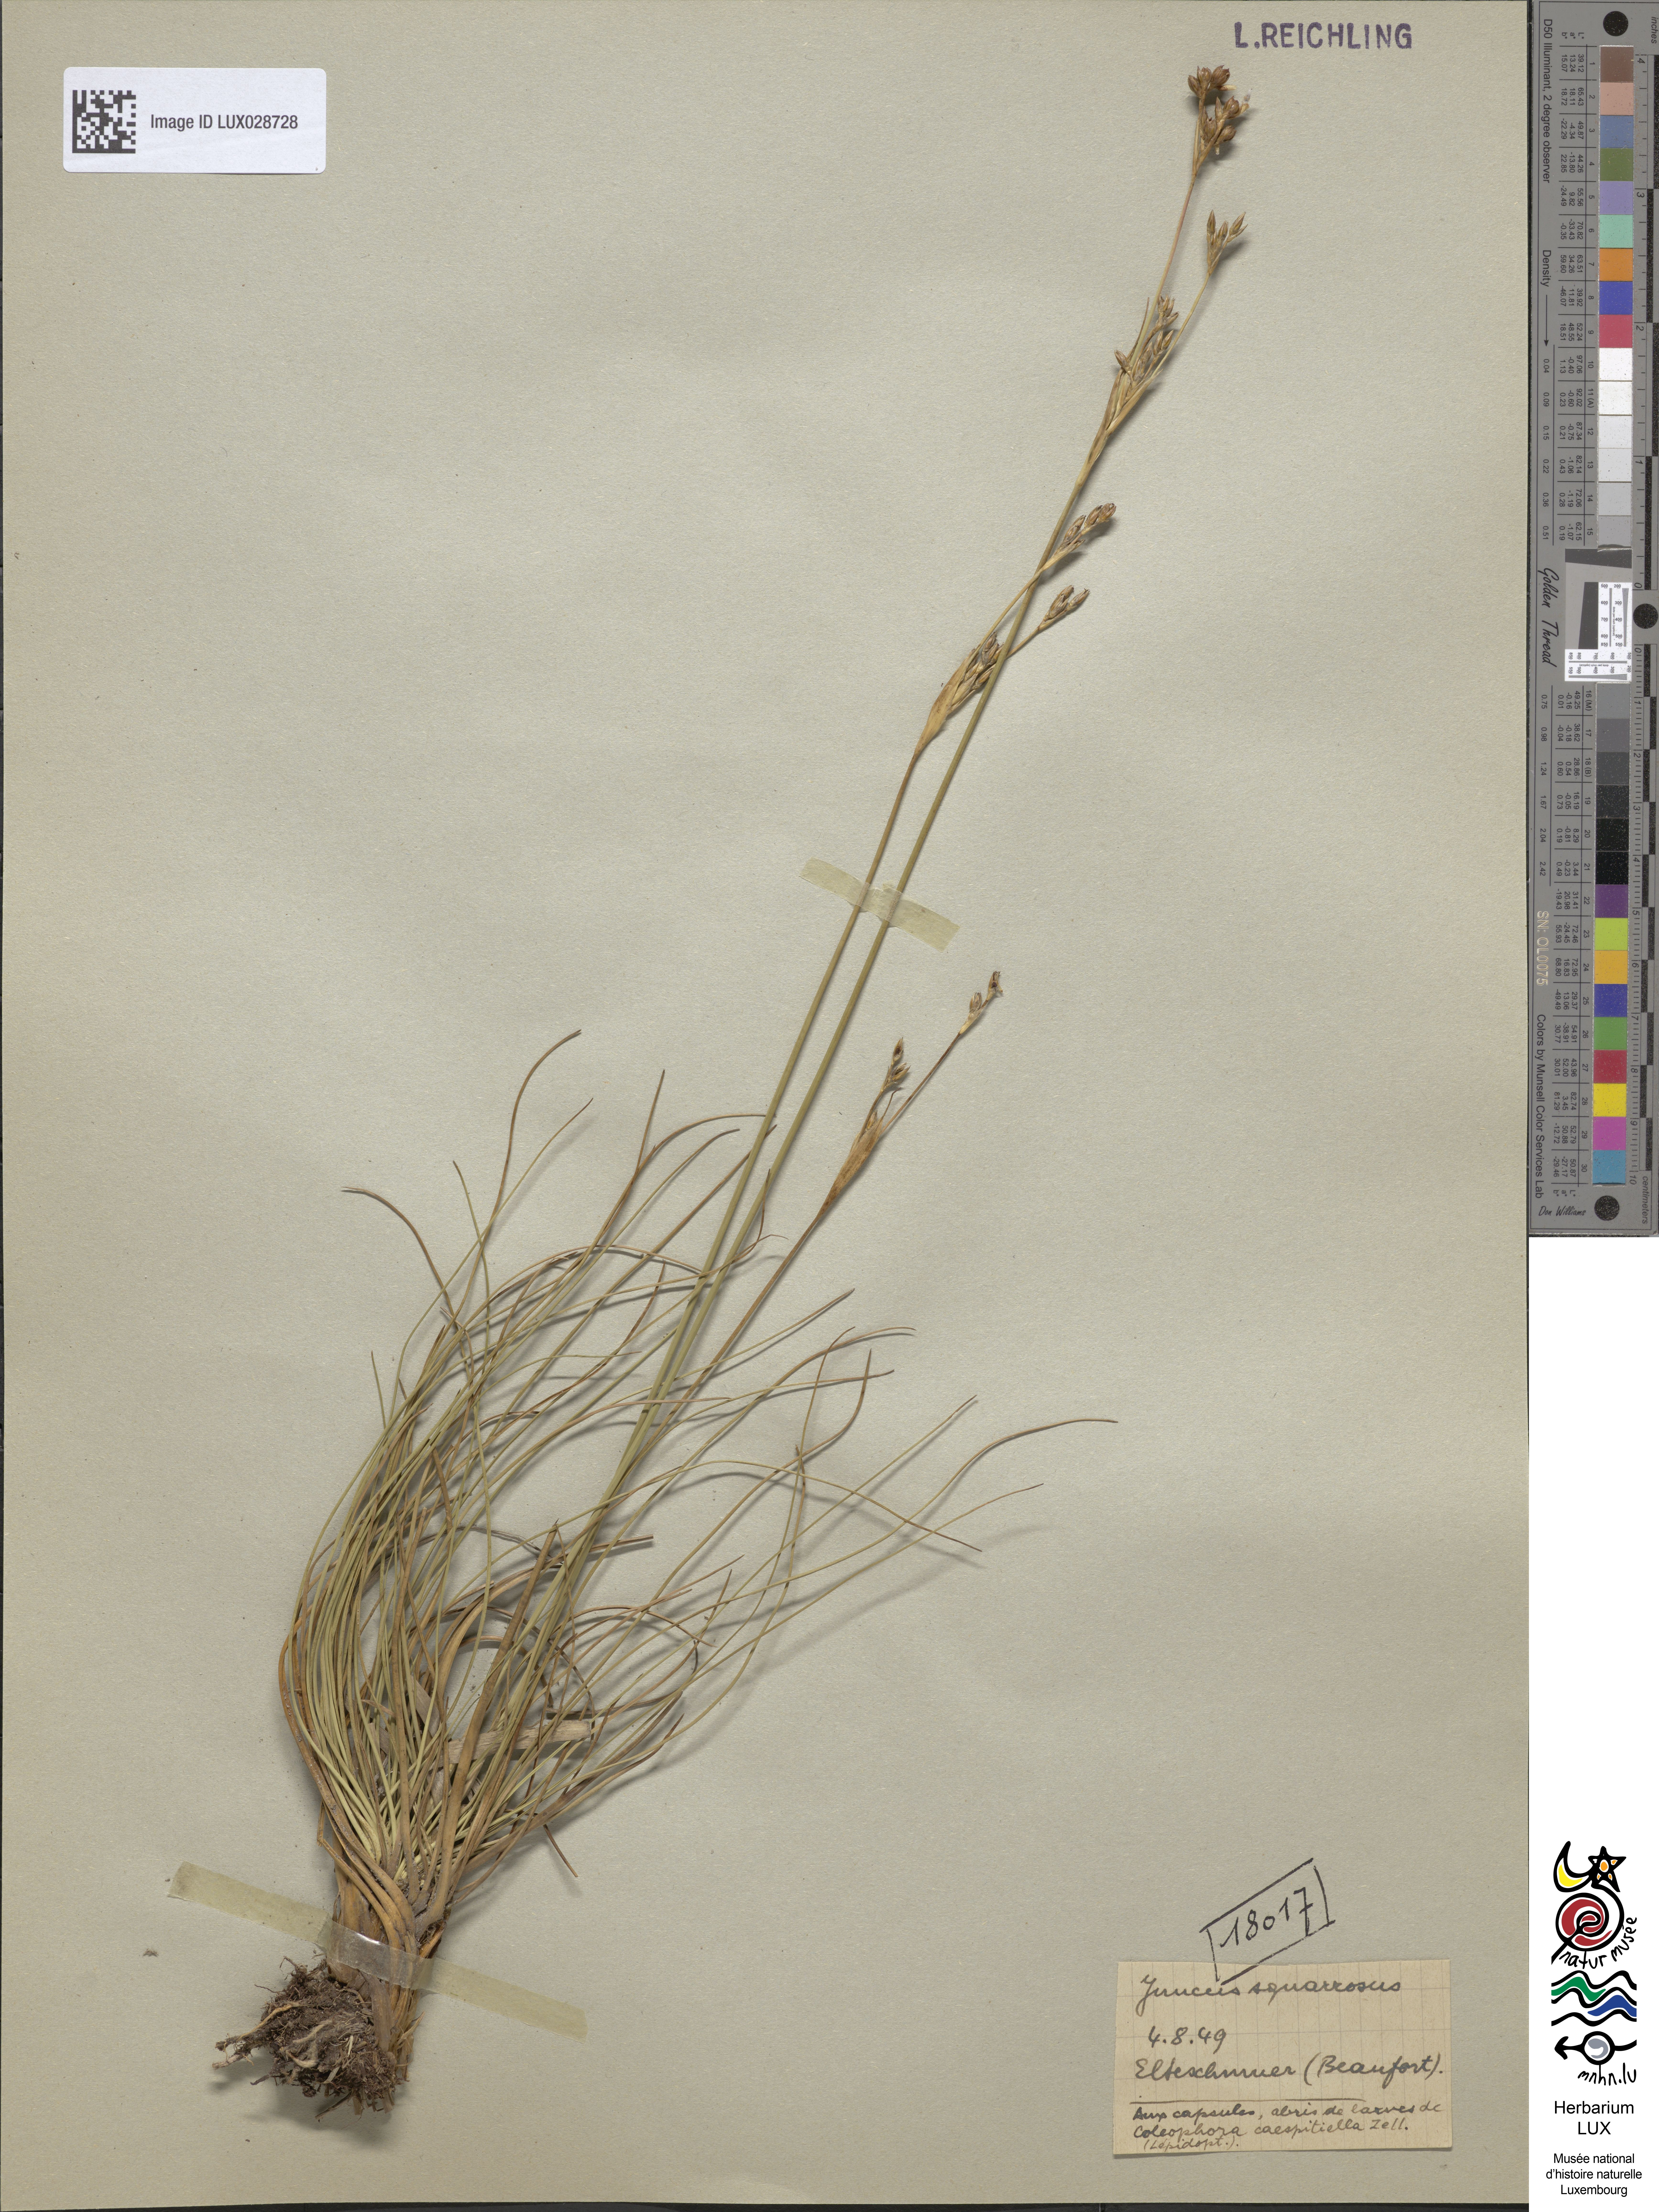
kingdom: Plantae
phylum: Tracheophyta
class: Liliopsida
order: Poales
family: Juncaceae
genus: Juncus
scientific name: Juncus squarrosus
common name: Heath rush
